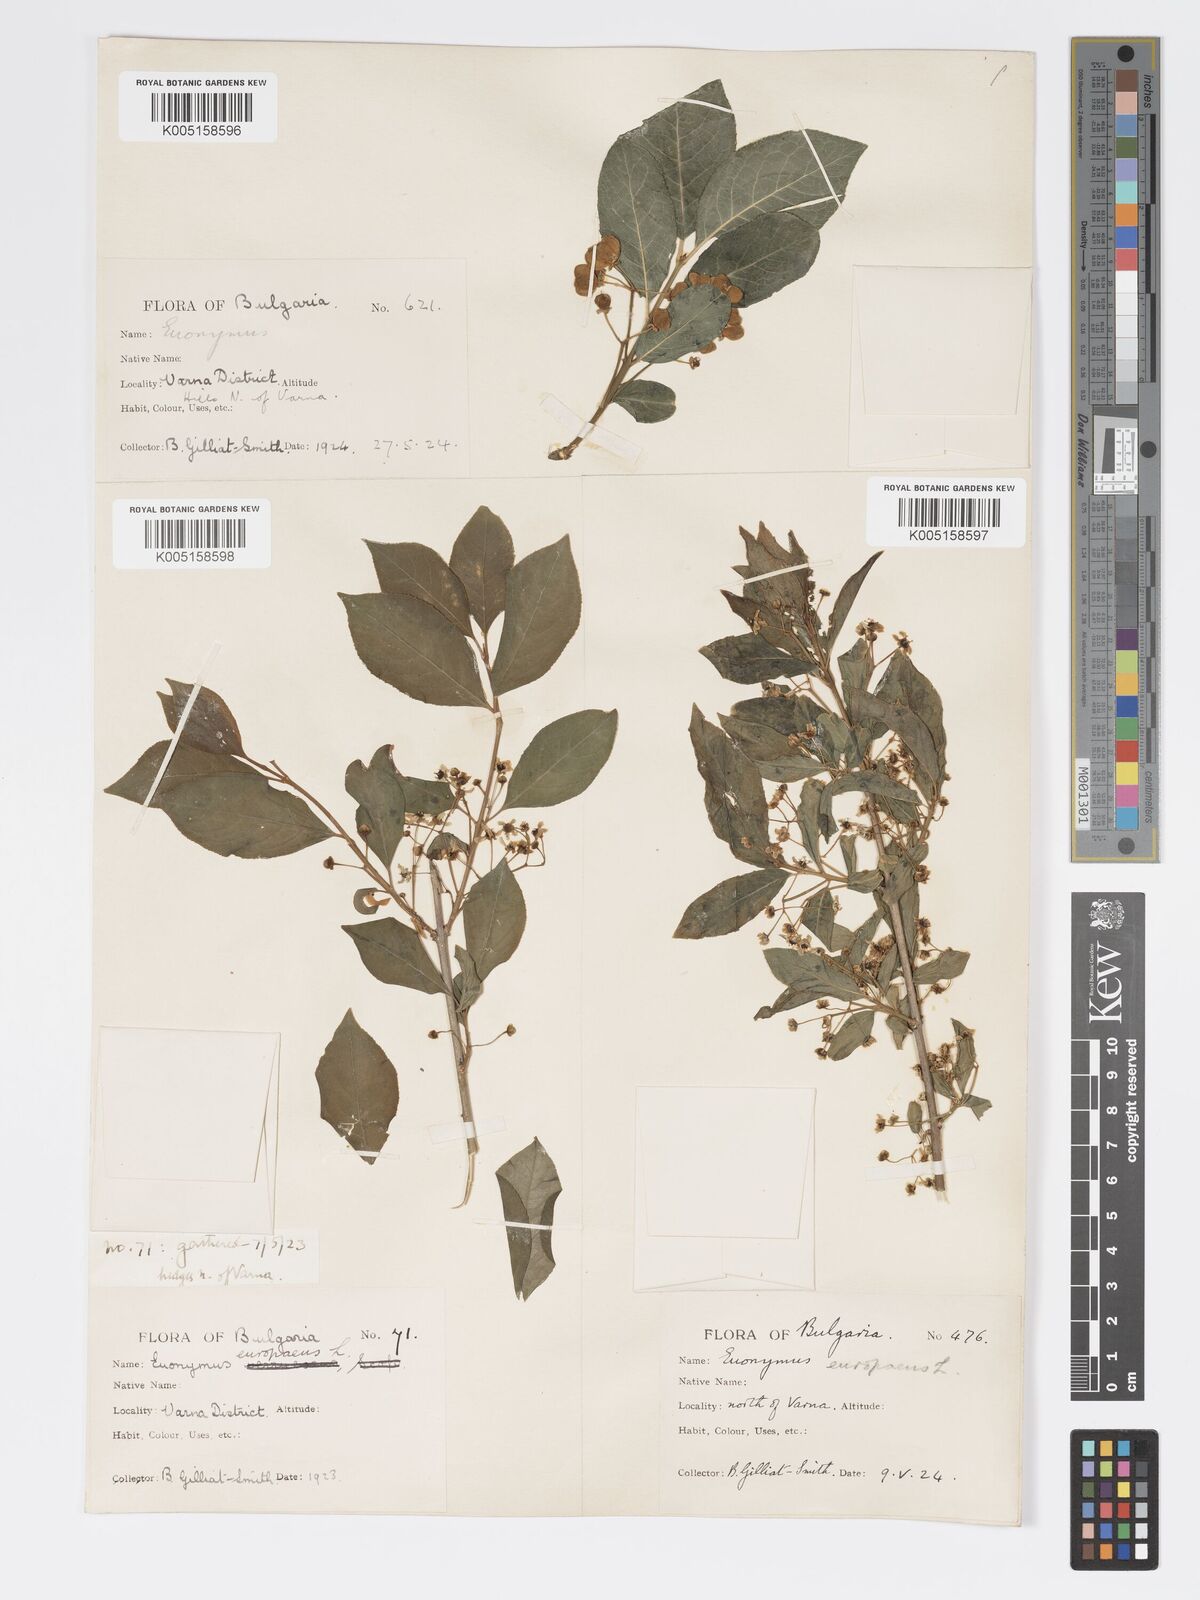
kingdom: Plantae
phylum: Tracheophyta
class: Magnoliopsida
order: Celastrales
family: Celastraceae
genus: Euonymus
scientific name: Euonymus europaeus
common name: Spindle
